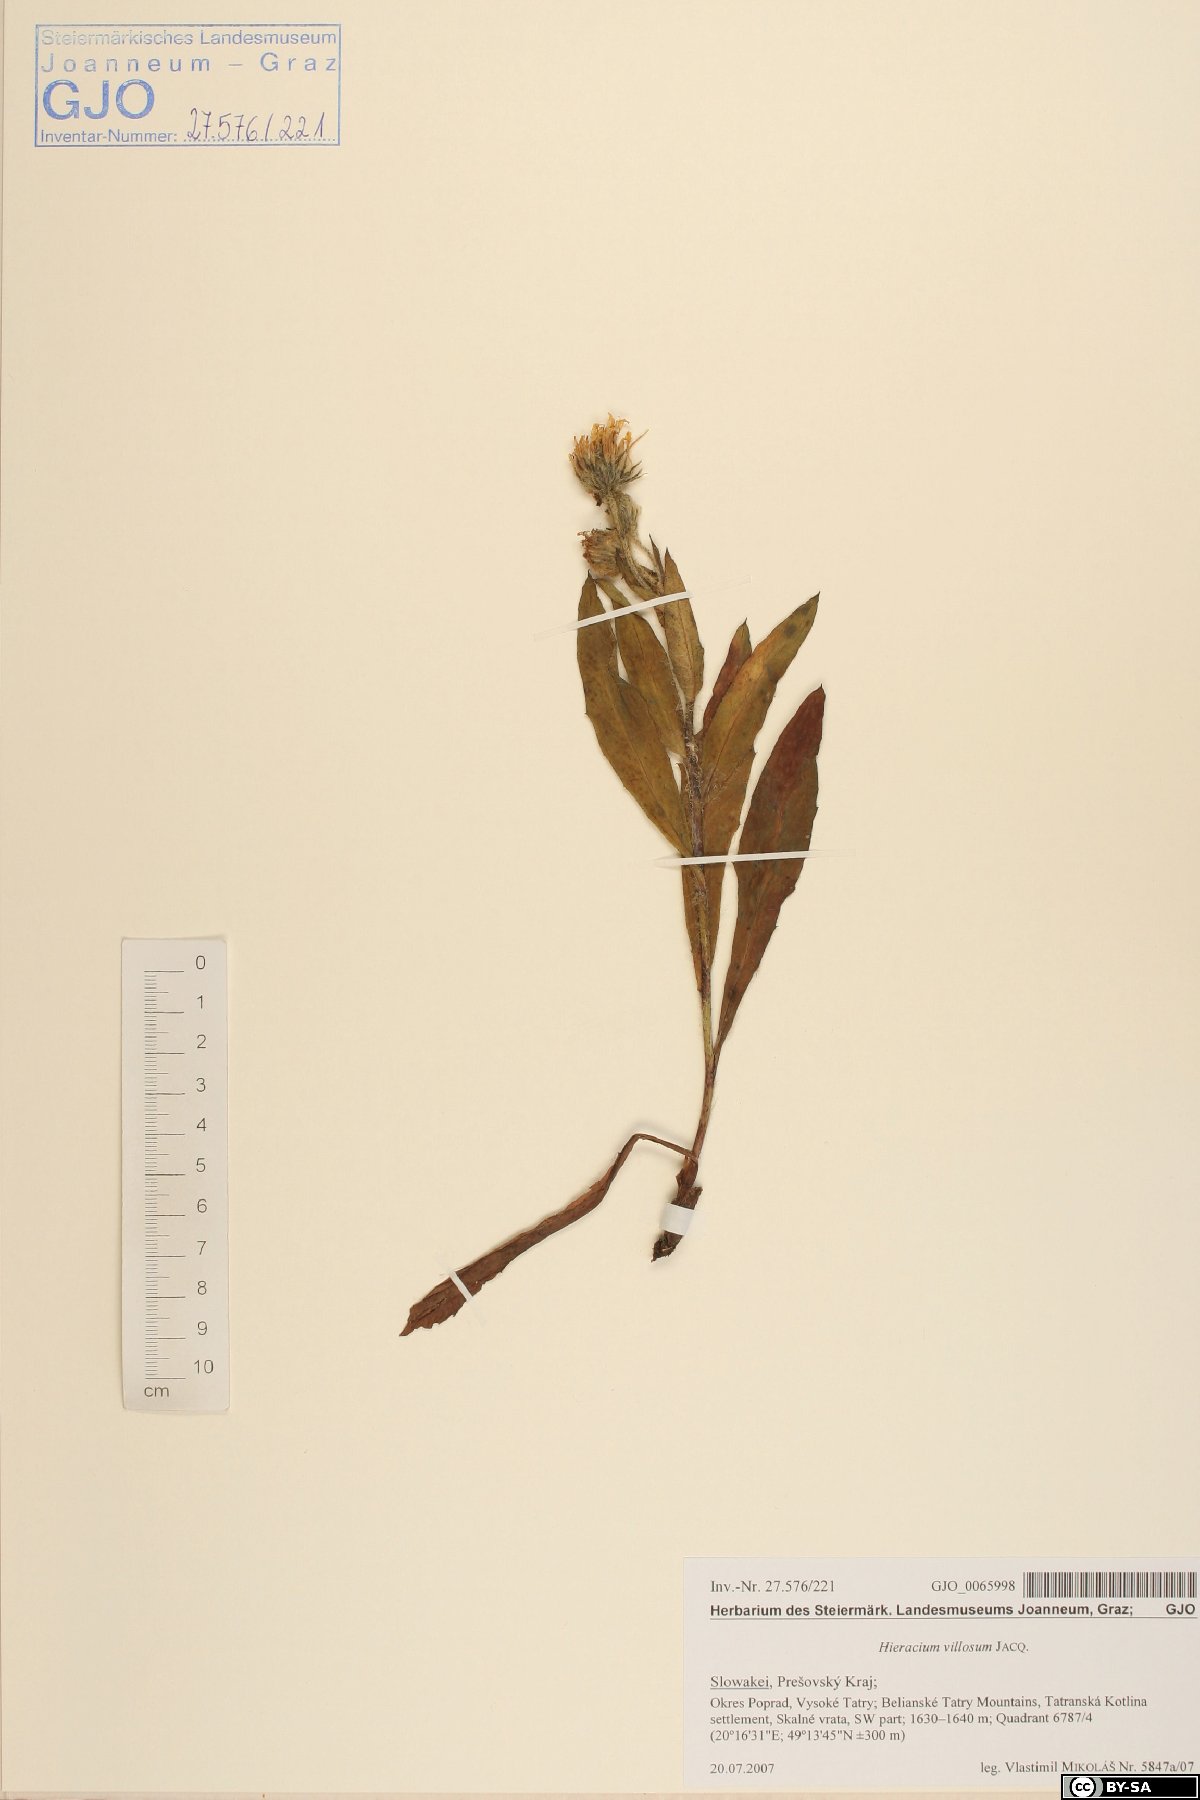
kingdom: Plantae
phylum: Tracheophyta
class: Magnoliopsida
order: Asterales
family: Asteraceae
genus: Hieracium
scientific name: Hieracium villosum
